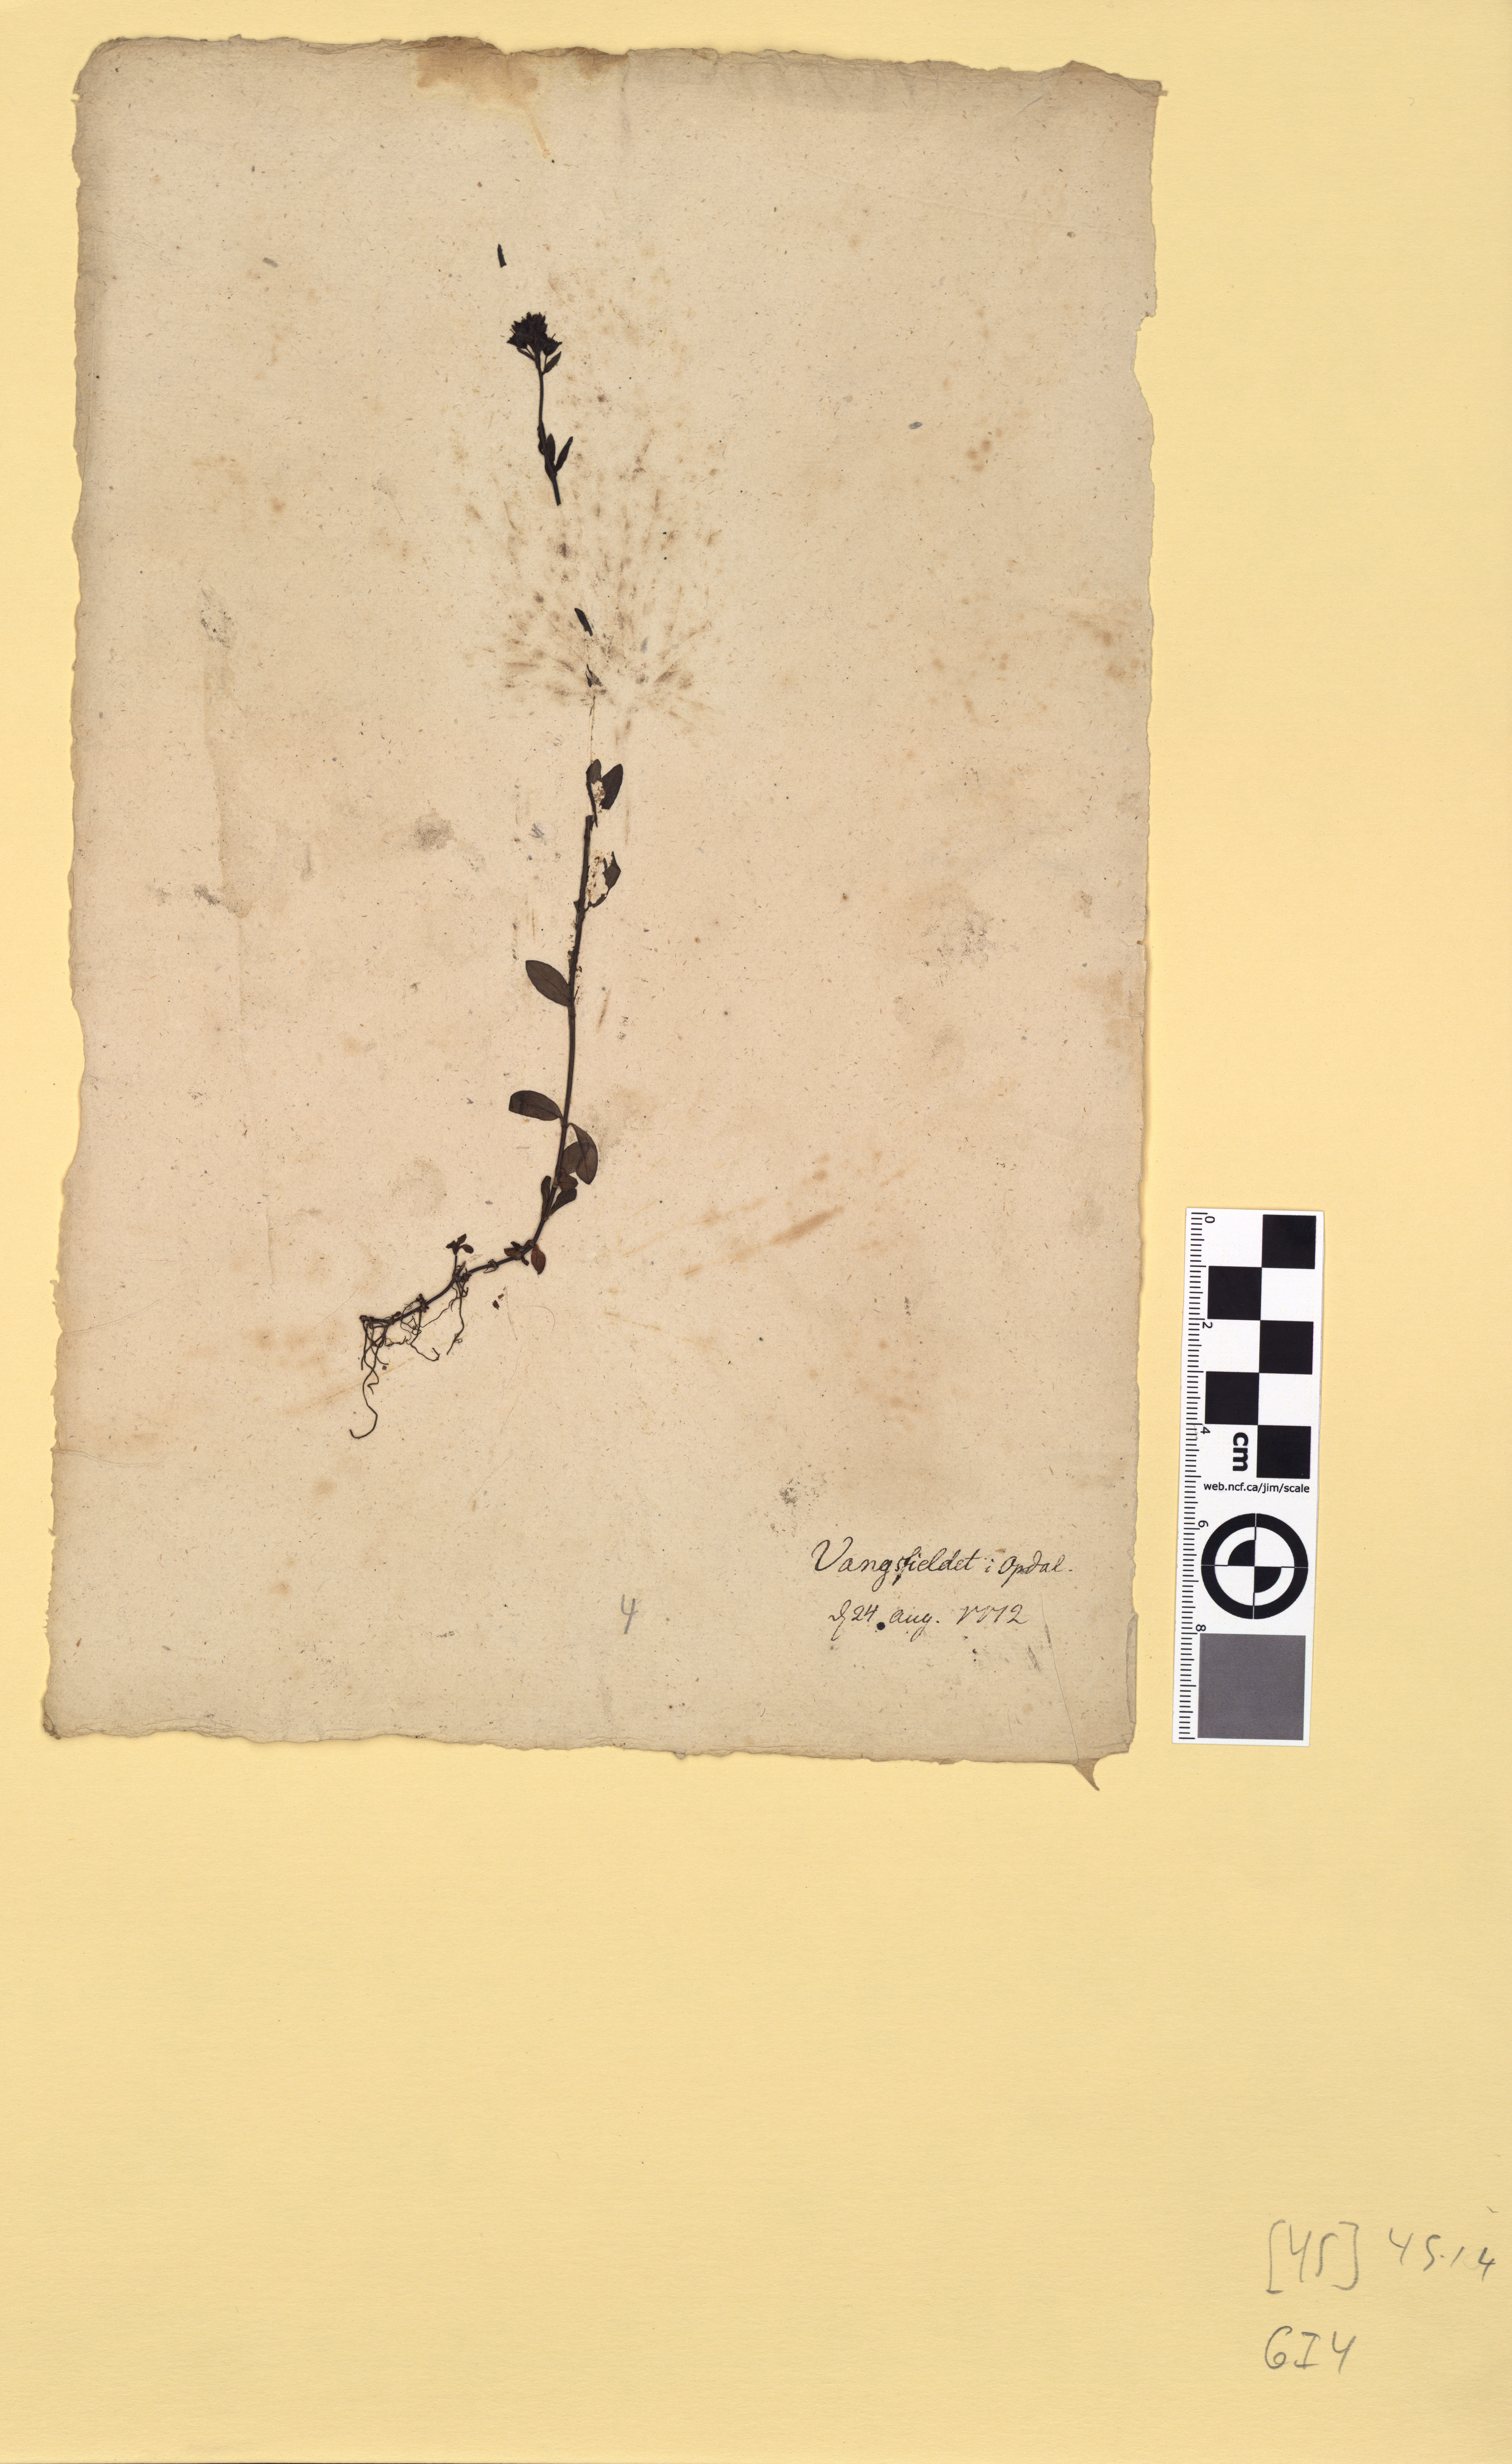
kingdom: Plantae
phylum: Tracheophyta
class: Magnoliopsida
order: Lamiales
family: Plantaginaceae
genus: Veronica
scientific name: Veronica alpina
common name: Alpine speedwell
